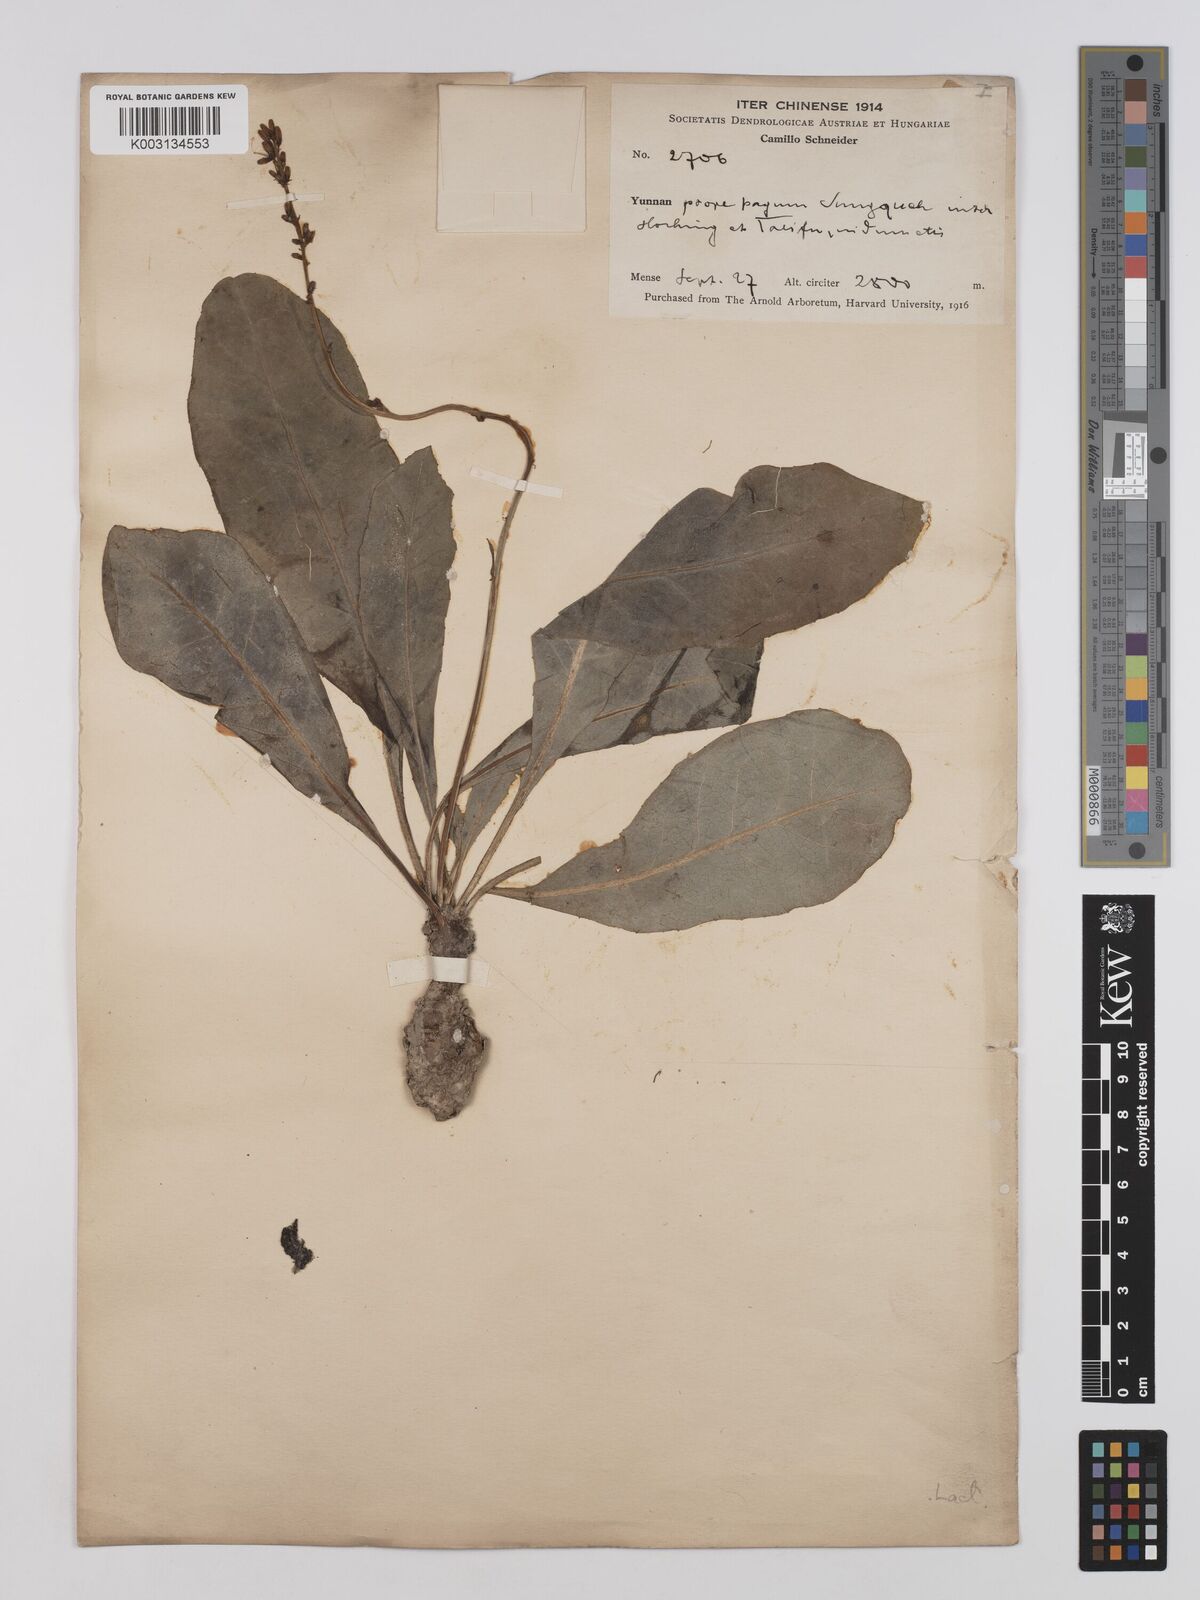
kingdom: Plantae
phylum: Tracheophyta
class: Magnoliopsida
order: Asterales
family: Asteraceae
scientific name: Asteraceae
